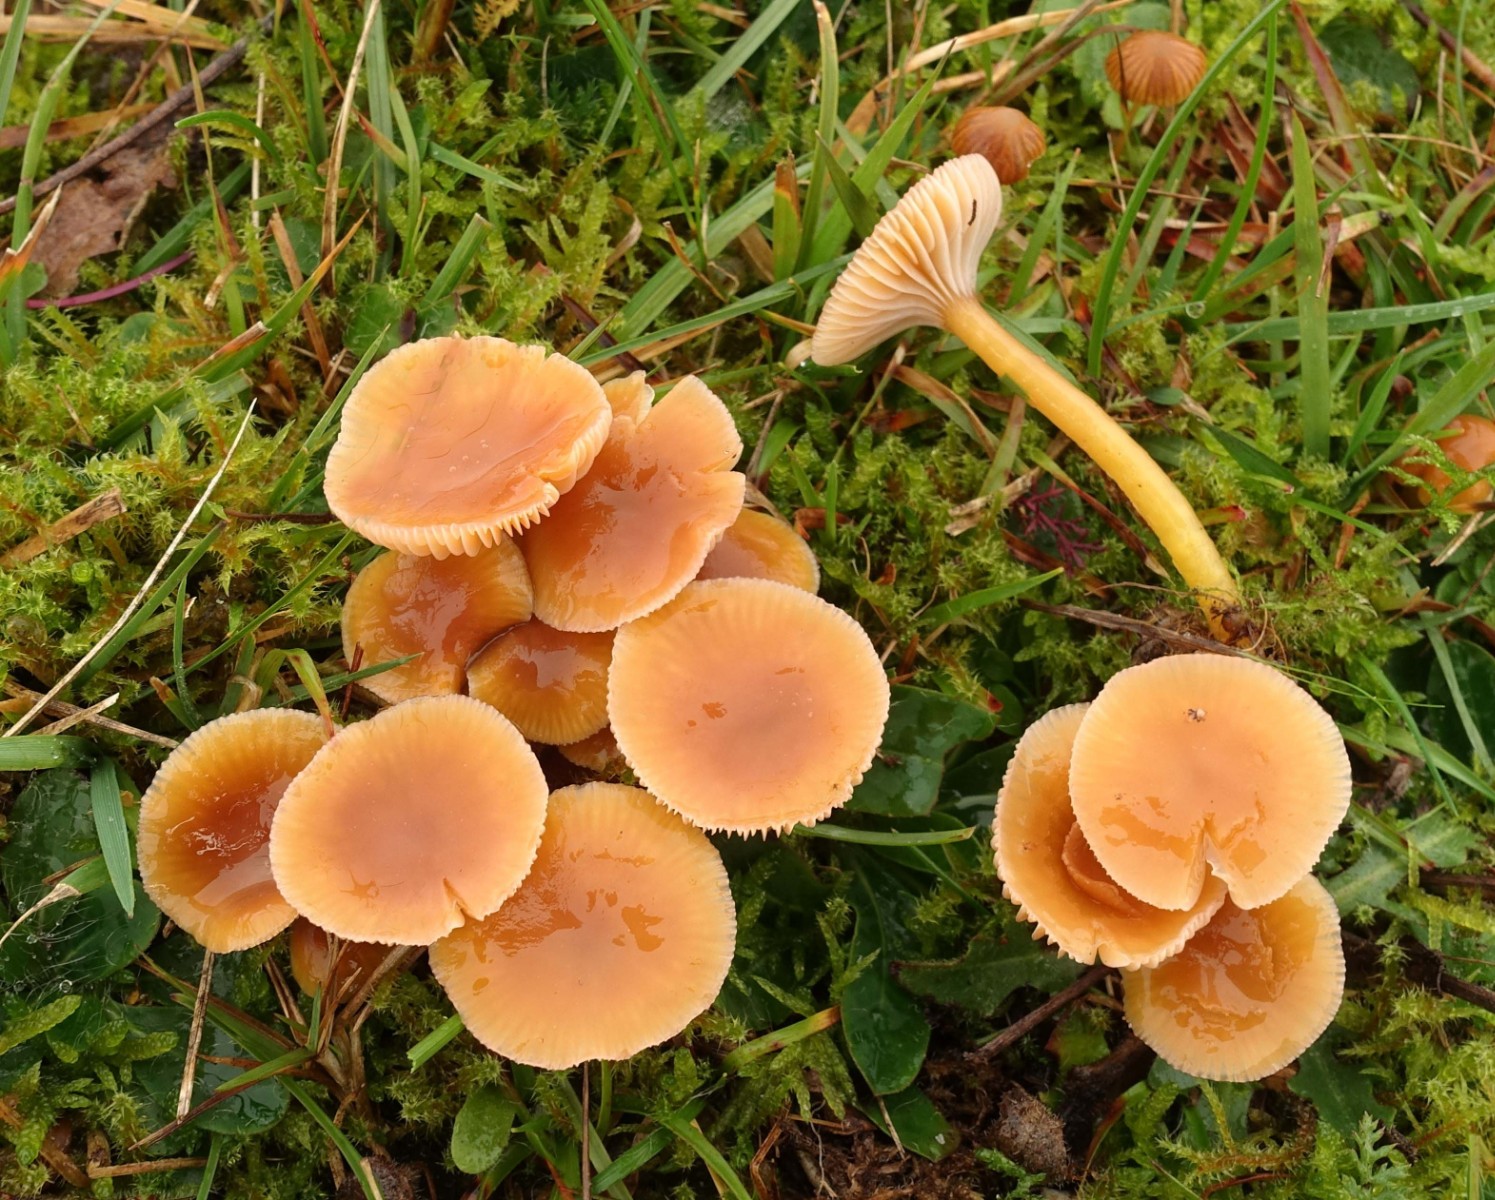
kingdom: Fungi
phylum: Basidiomycota
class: Agaricomycetes
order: Agaricales
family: Hygrophoraceae
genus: Gliophorus
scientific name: Gliophorus laetus
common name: brusk-vokshat
